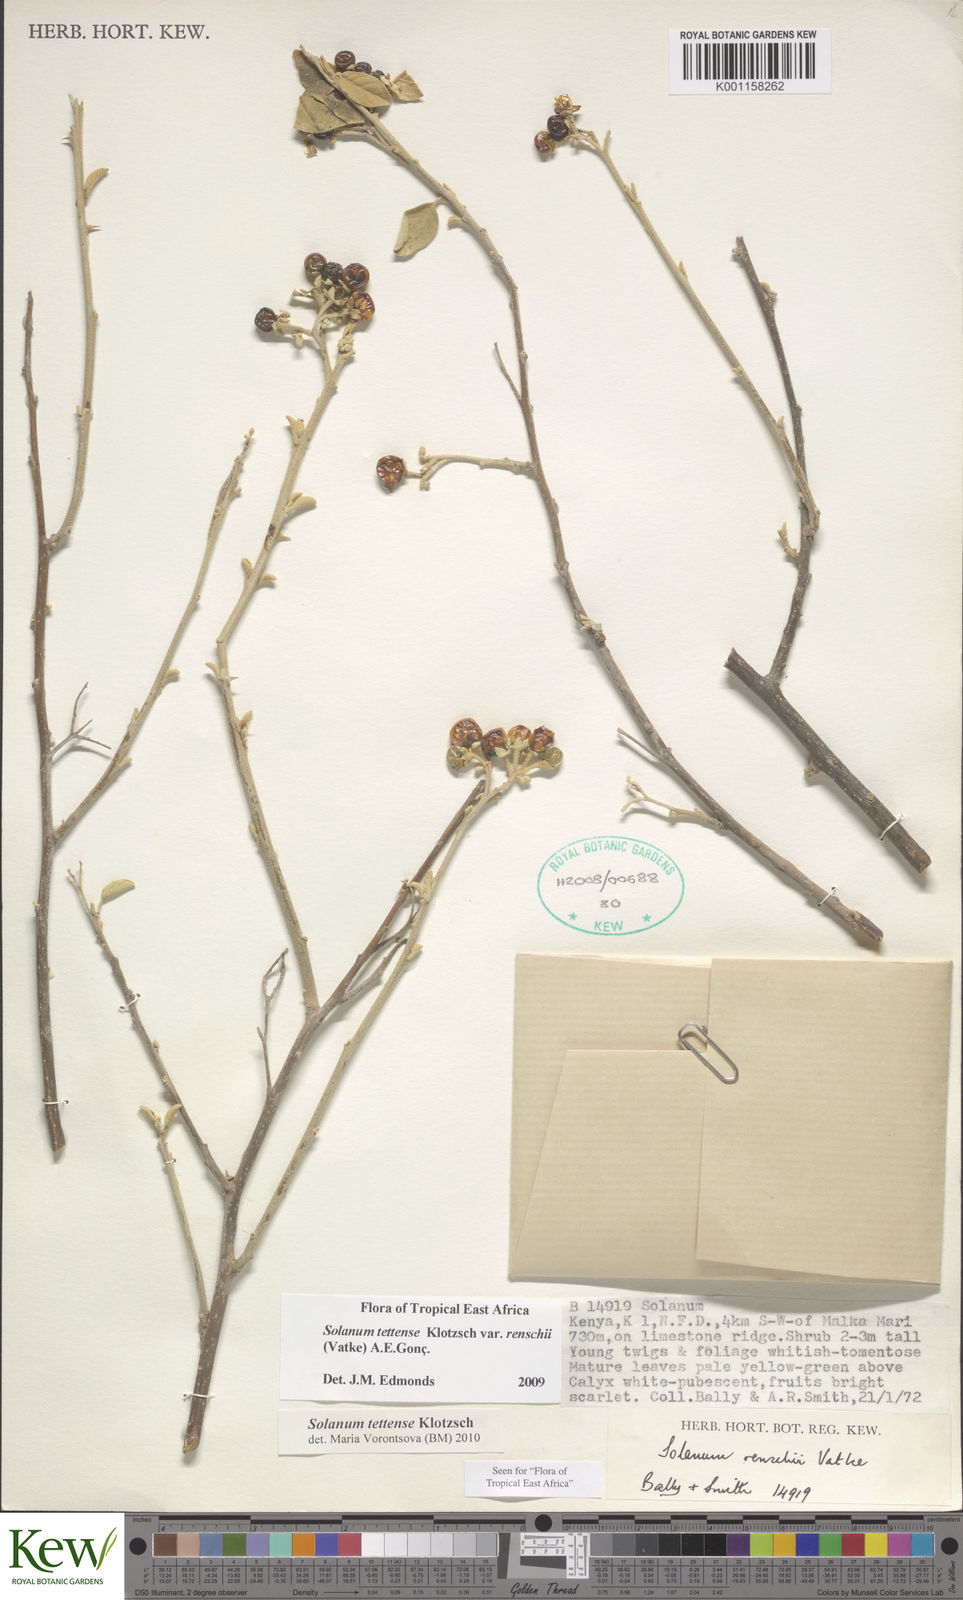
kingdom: Plantae
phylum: Tracheophyta
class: Magnoliopsida
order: Solanales
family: Solanaceae
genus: Solanum
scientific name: Solanum tettense
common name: Mozambique bitter apple
